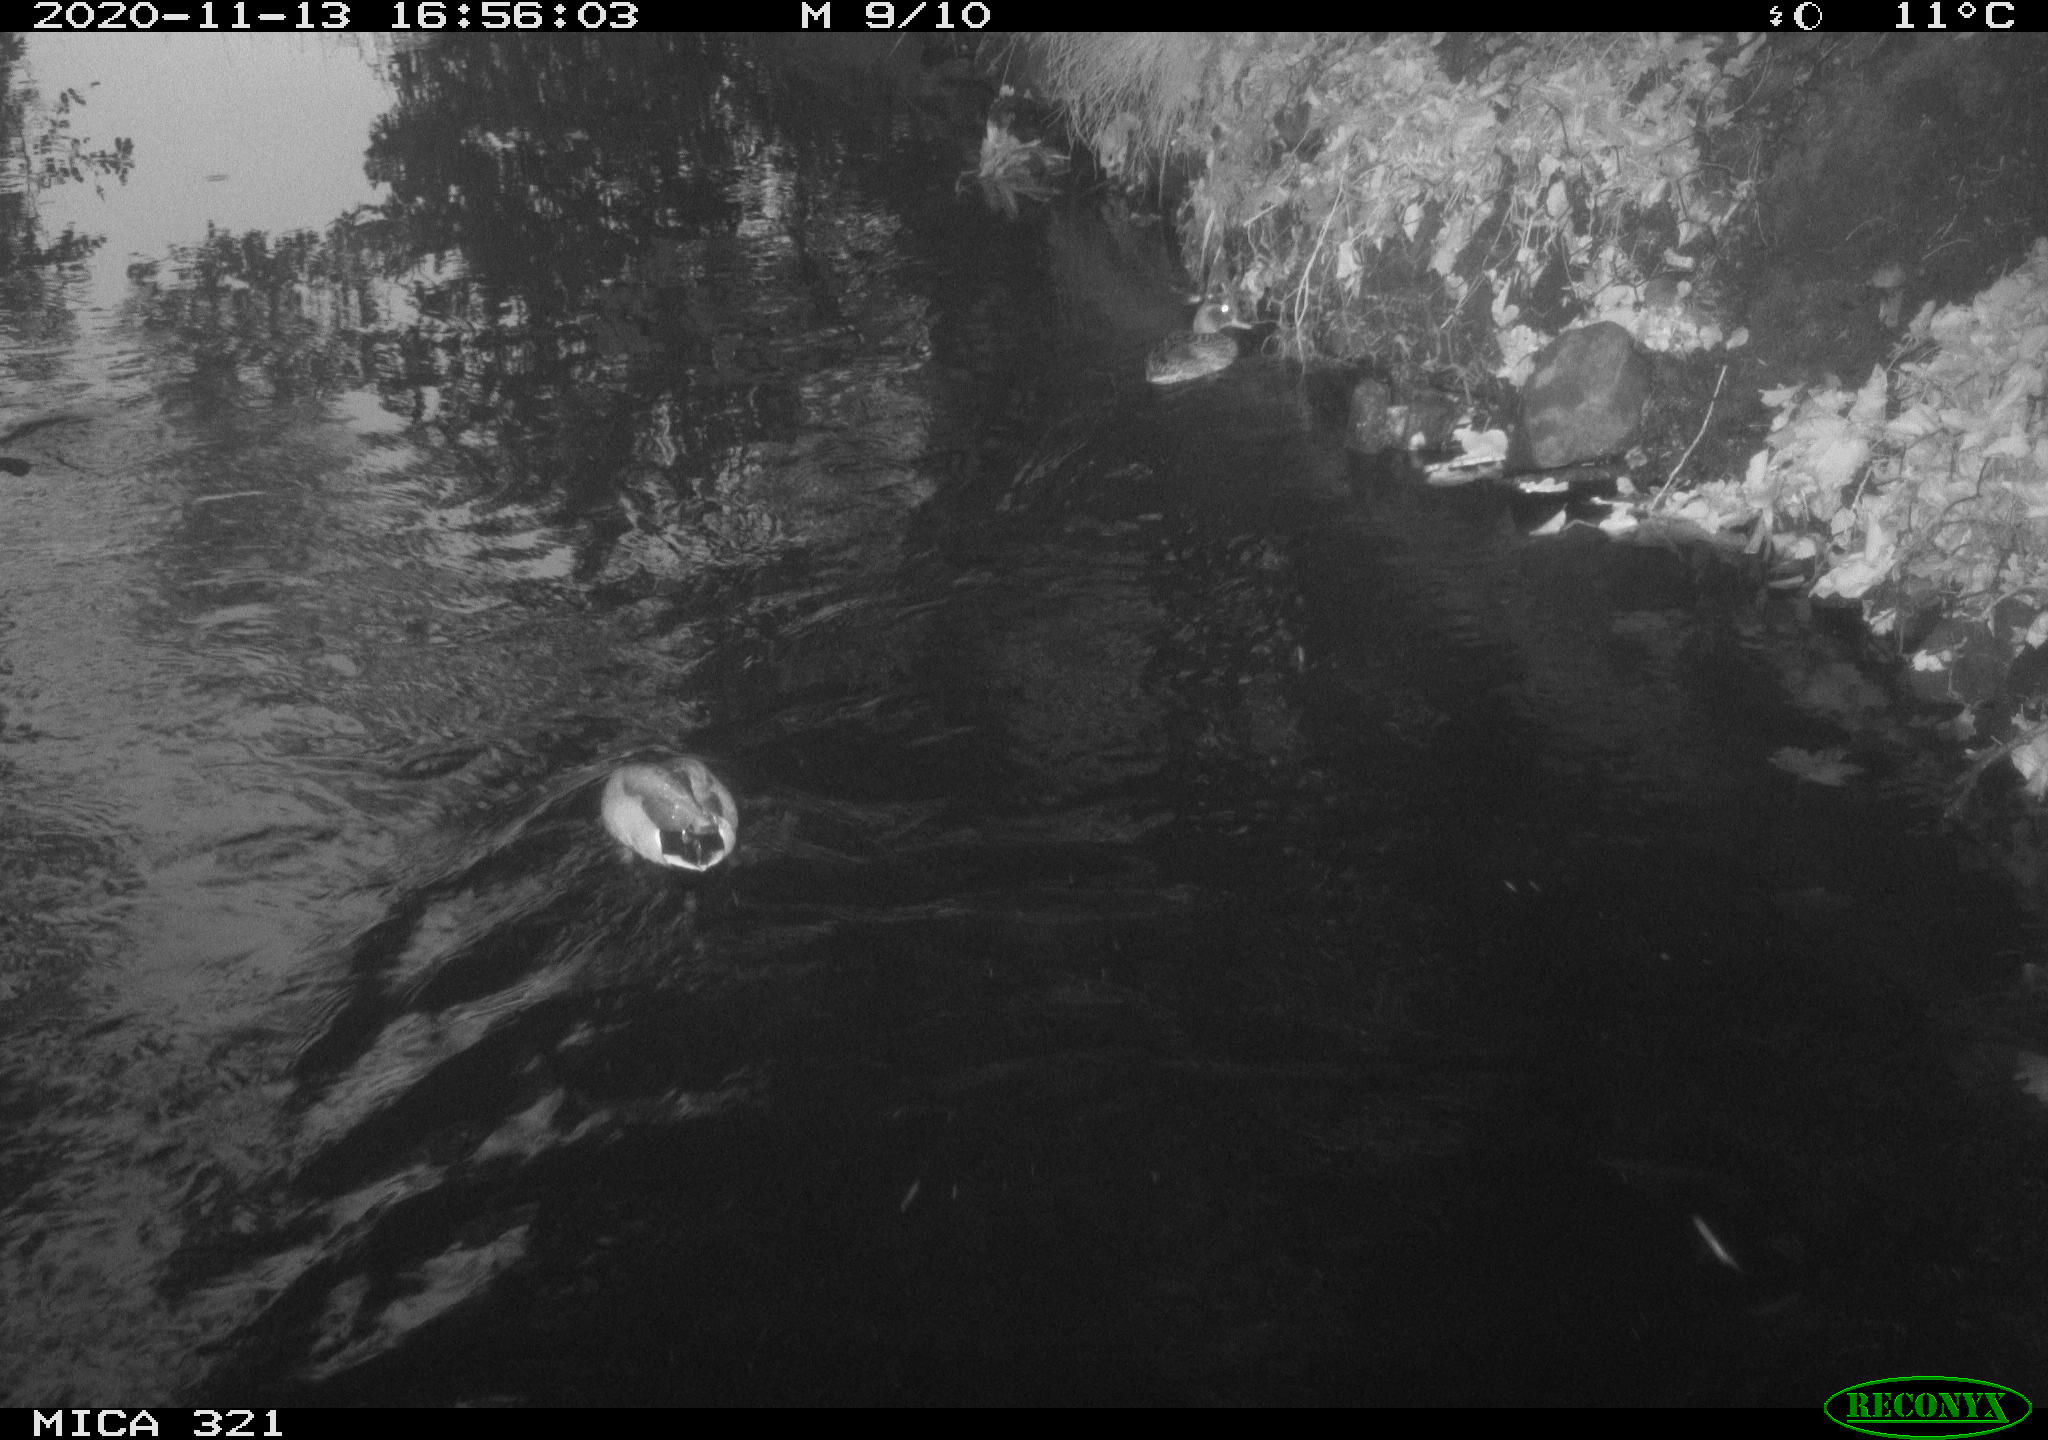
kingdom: Animalia
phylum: Chordata
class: Aves
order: Anseriformes
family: Anatidae
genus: Anas
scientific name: Anas platyrhynchos
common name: Mallard
